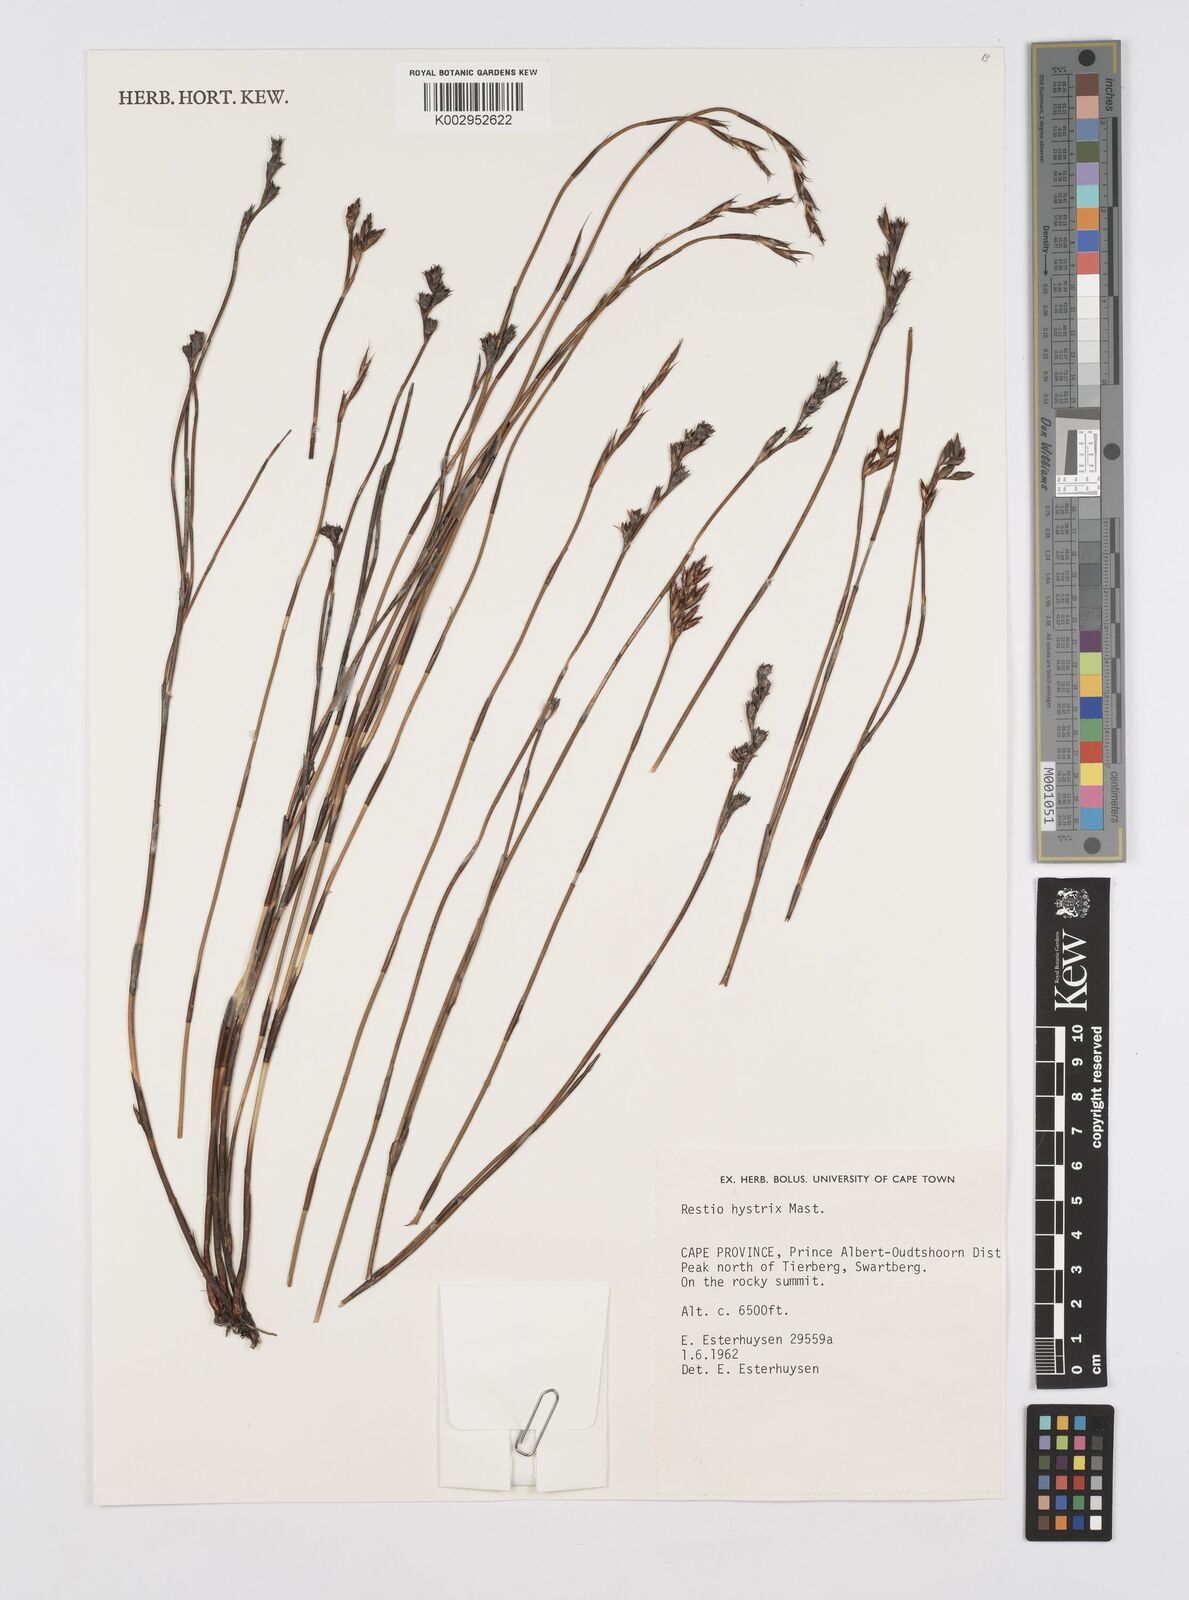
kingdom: Plantae
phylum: Tracheophyta
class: Liliopsida
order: Poales
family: Restionaceae
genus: Restio
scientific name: Restio hystrix
